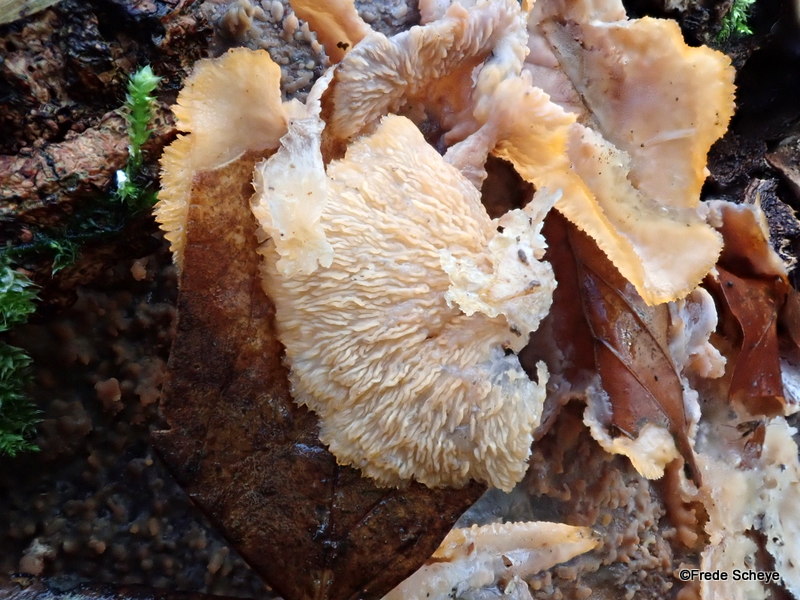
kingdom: Fungi
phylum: Basidiomycota
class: Agaricomycetes
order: Polyporales
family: Meruliaceae
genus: Phlebia
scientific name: Phlebia tremellosa
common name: bævrende åresvamp
